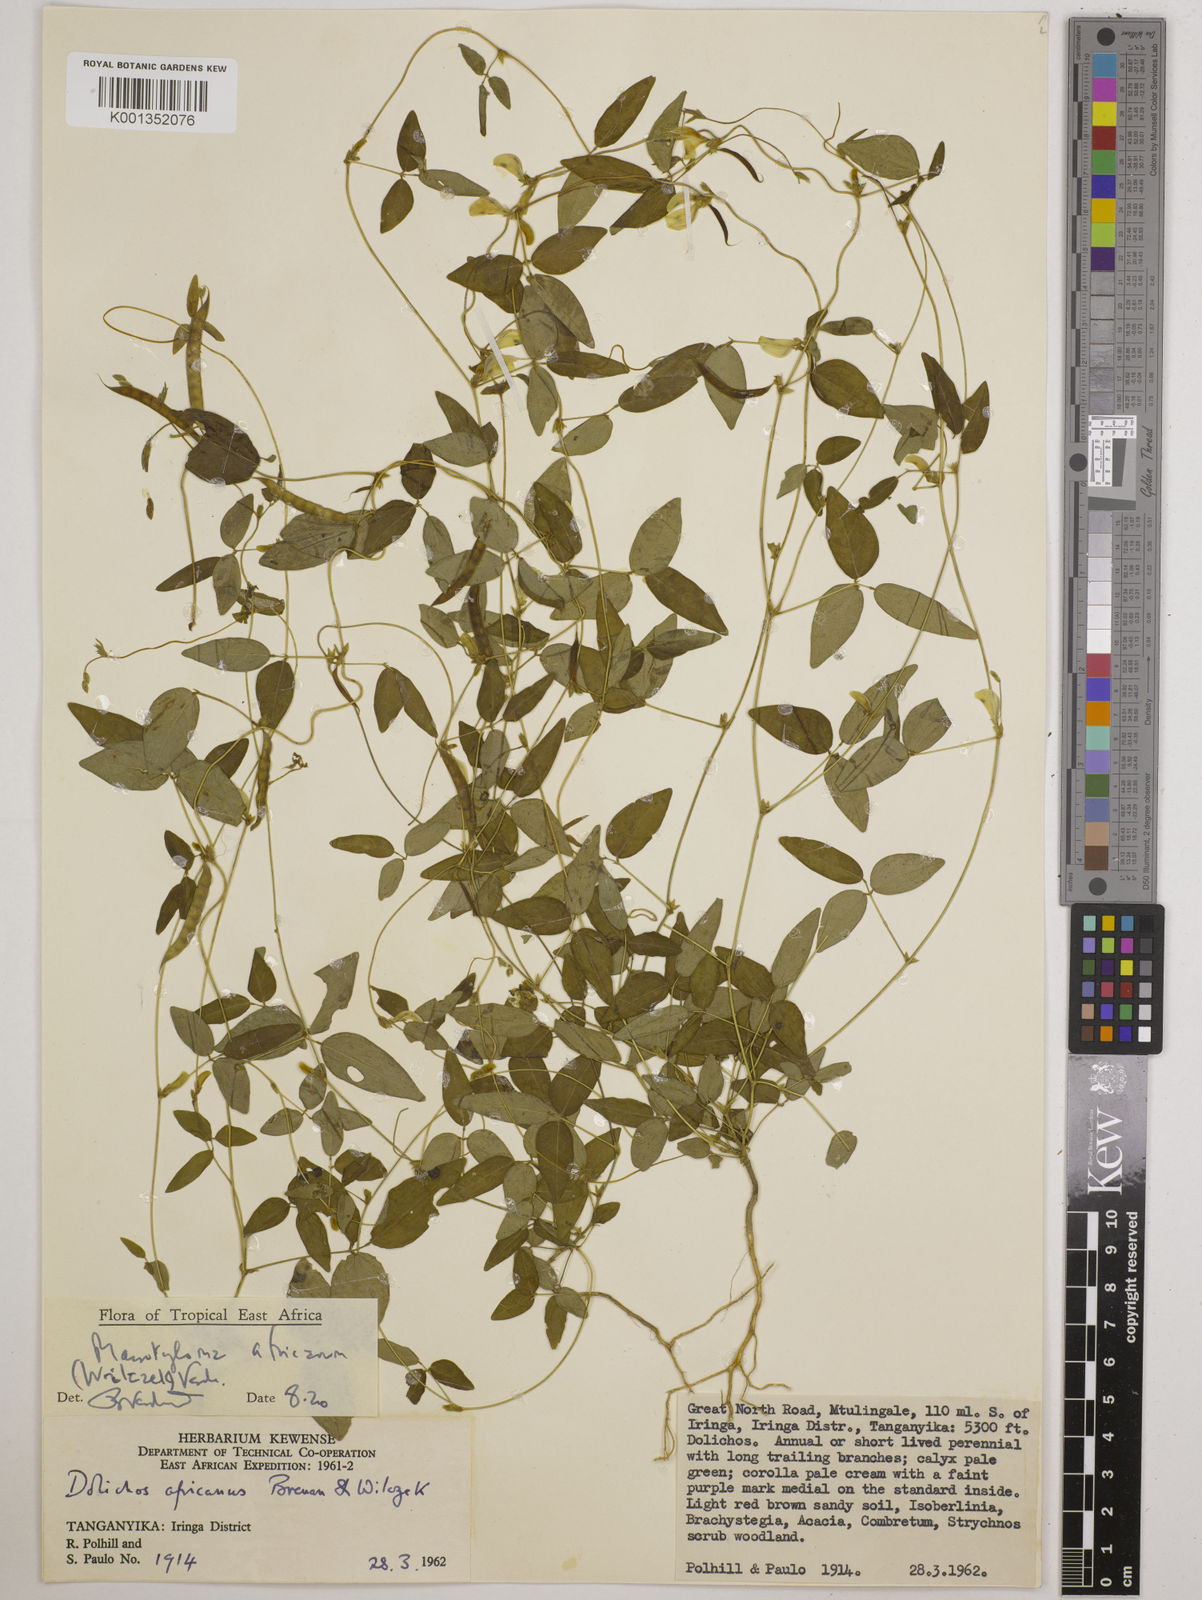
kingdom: Plantae
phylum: Tracheophyta
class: Magnoliopsida
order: Fabales
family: Fabaceae
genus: Macrotyloma
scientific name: Macrotyloma africanum
